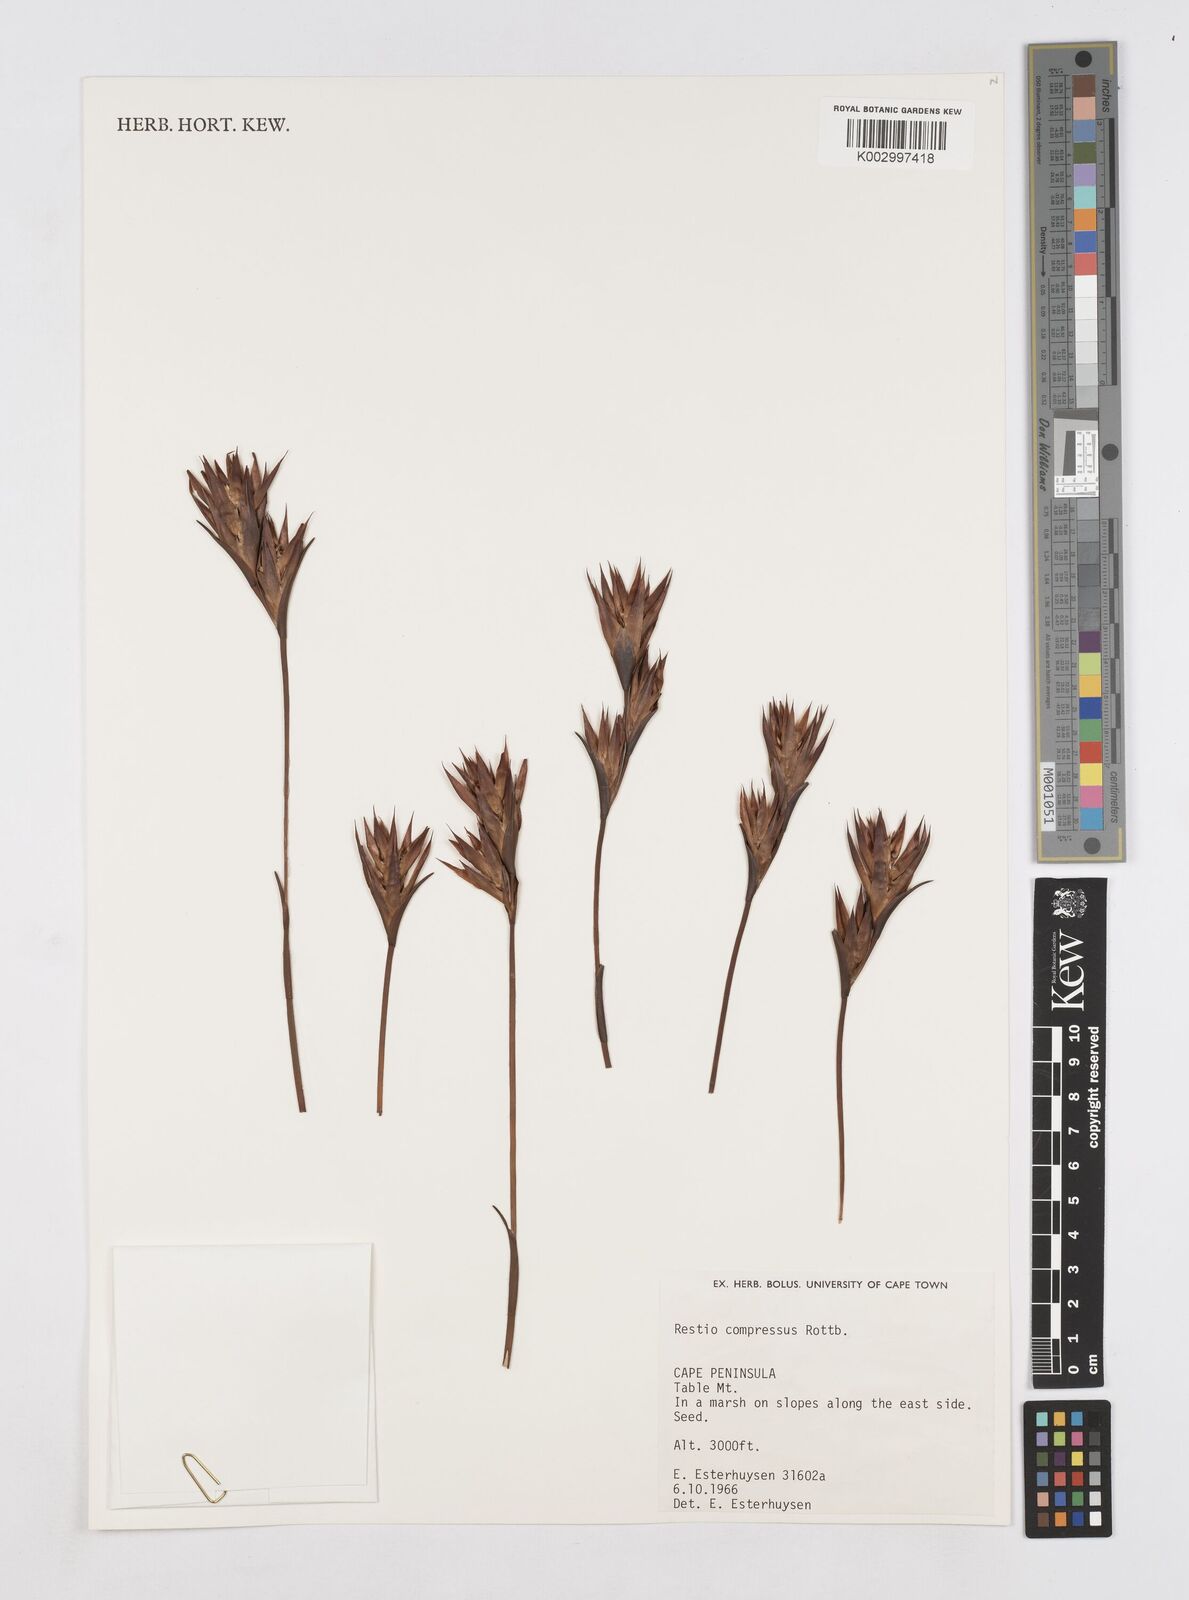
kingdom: Plantae
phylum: Tracheophyta
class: Liliopsida
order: Poales
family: Restionaceae
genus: Platycaulos
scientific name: Platycaulos compressus
